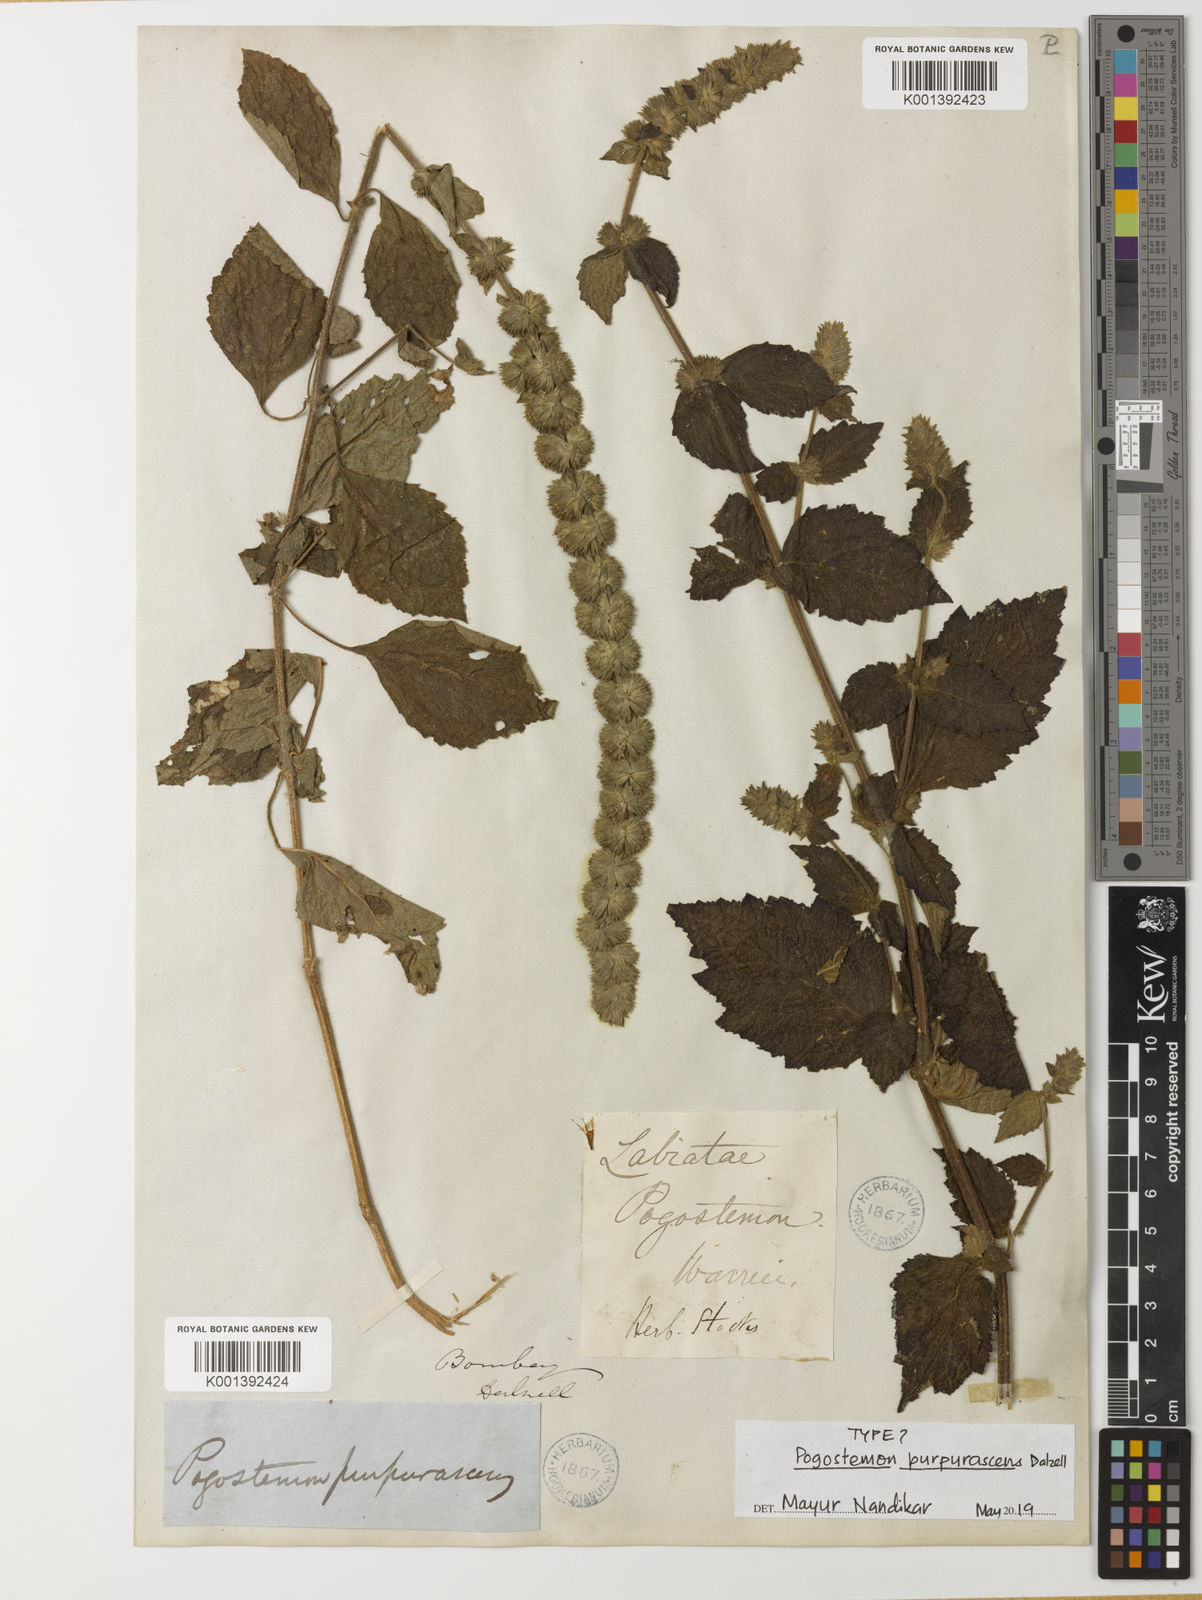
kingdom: Plantae
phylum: Tracheophyta
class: Magnoliopsida
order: Lamiales
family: Lamiaceae
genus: Pogostemon
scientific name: Pogostemon purpurascens
